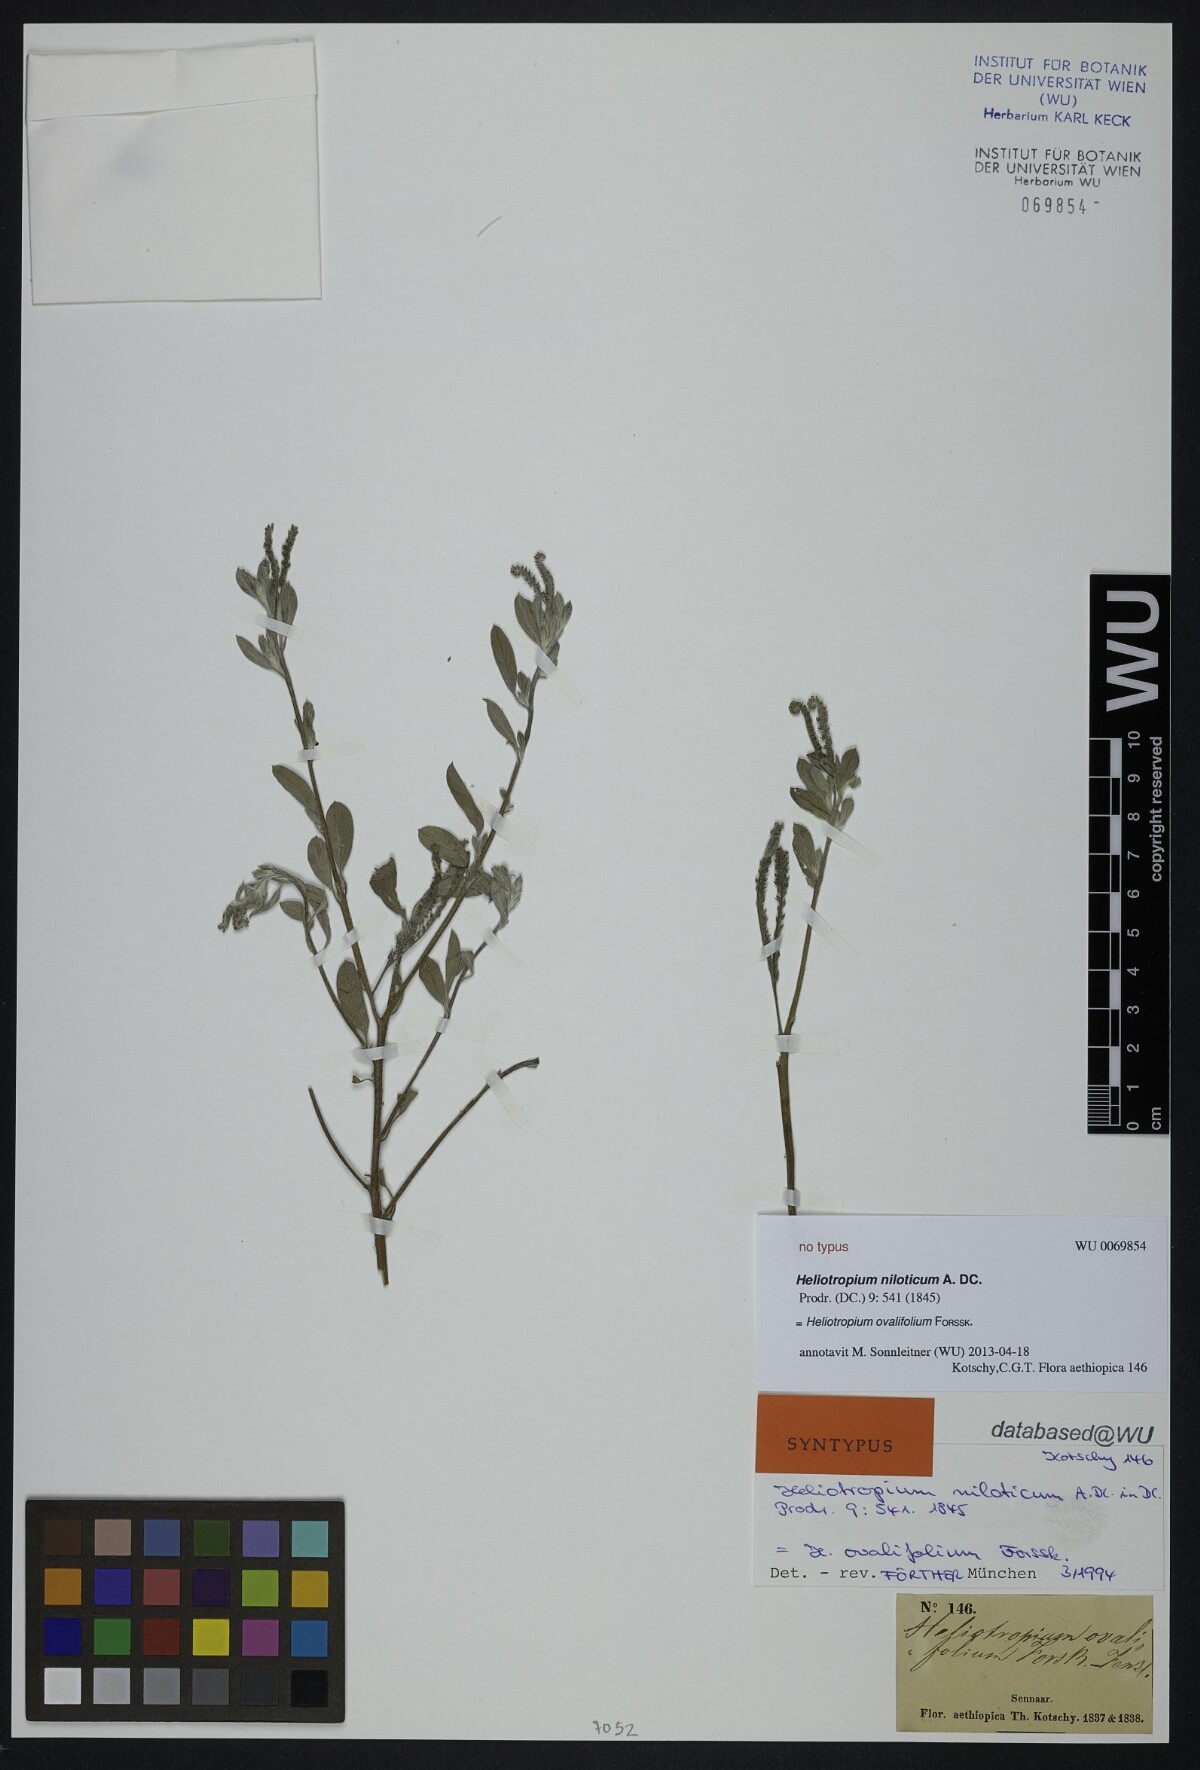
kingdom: Plantae
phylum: Tracheophyta
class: Magnoliopsida
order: Boraginales
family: Heliotropiaceae
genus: Euploca
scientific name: Euploca ovalifolia
